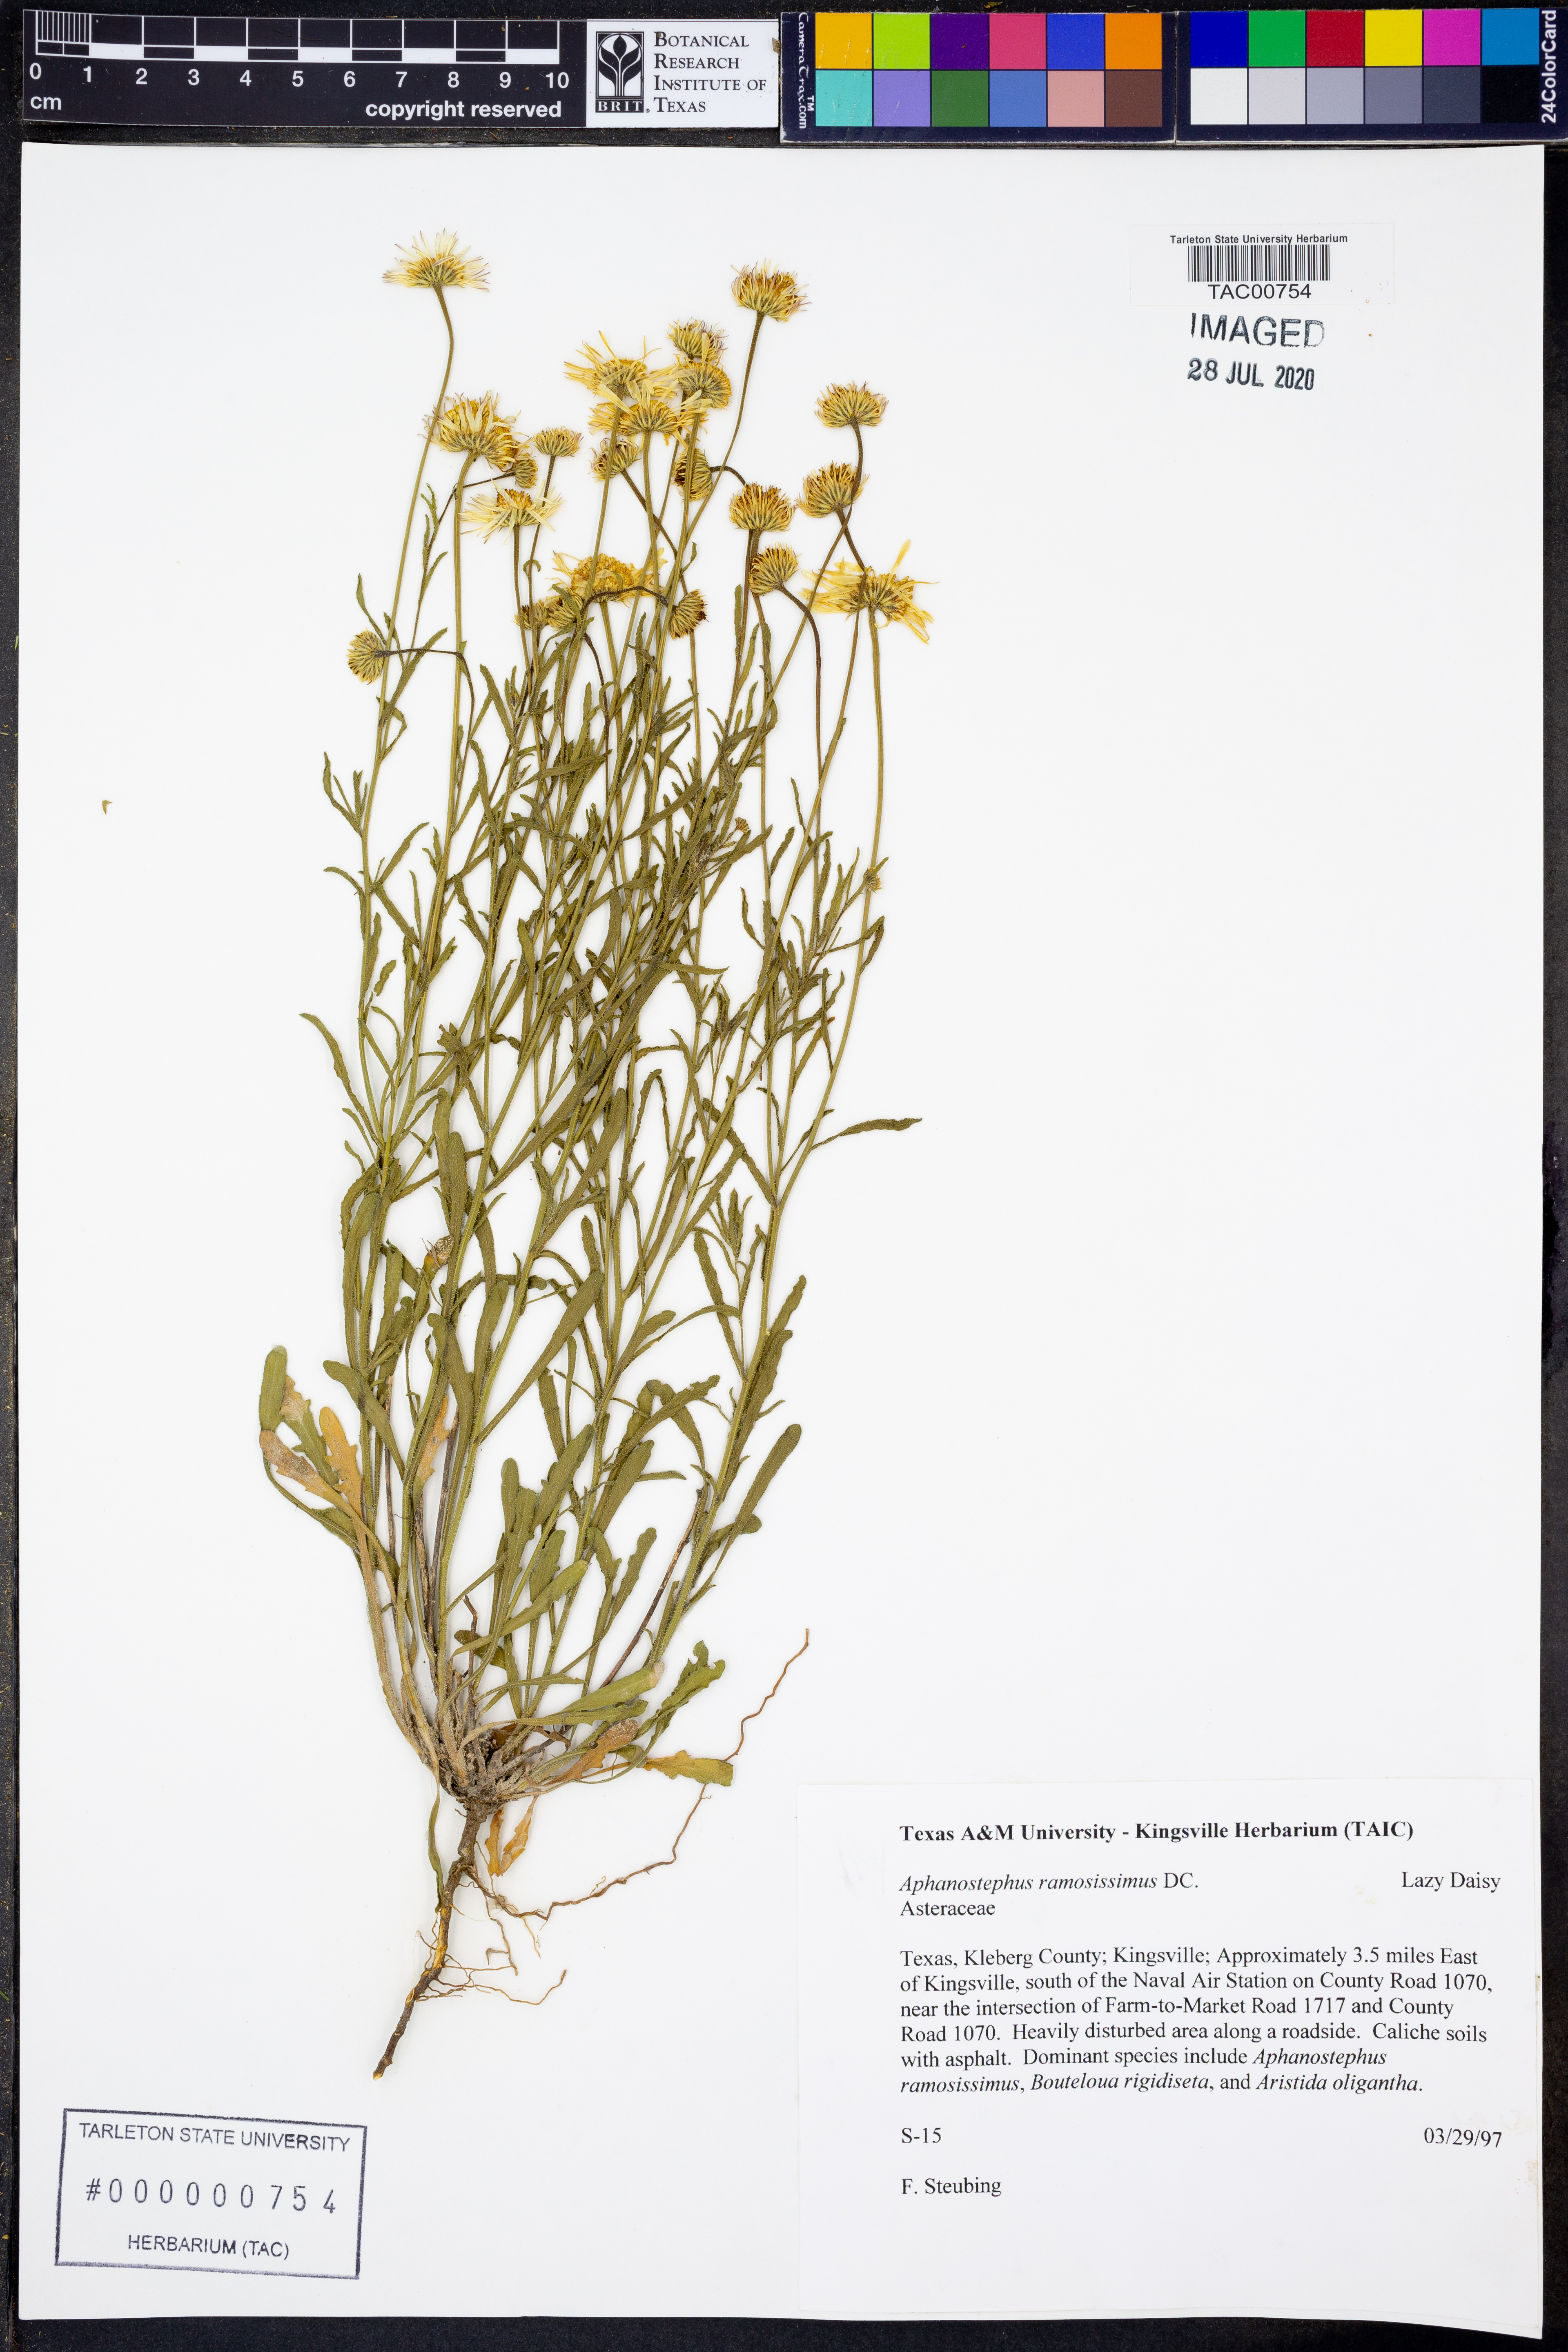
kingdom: Plantae
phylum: Tracheophyta
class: Magnoliopsida
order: Asterales
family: Asteraceae
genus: Aphanostephus
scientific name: Aphanostephus ramosissimus
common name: Plains lazy daisy
